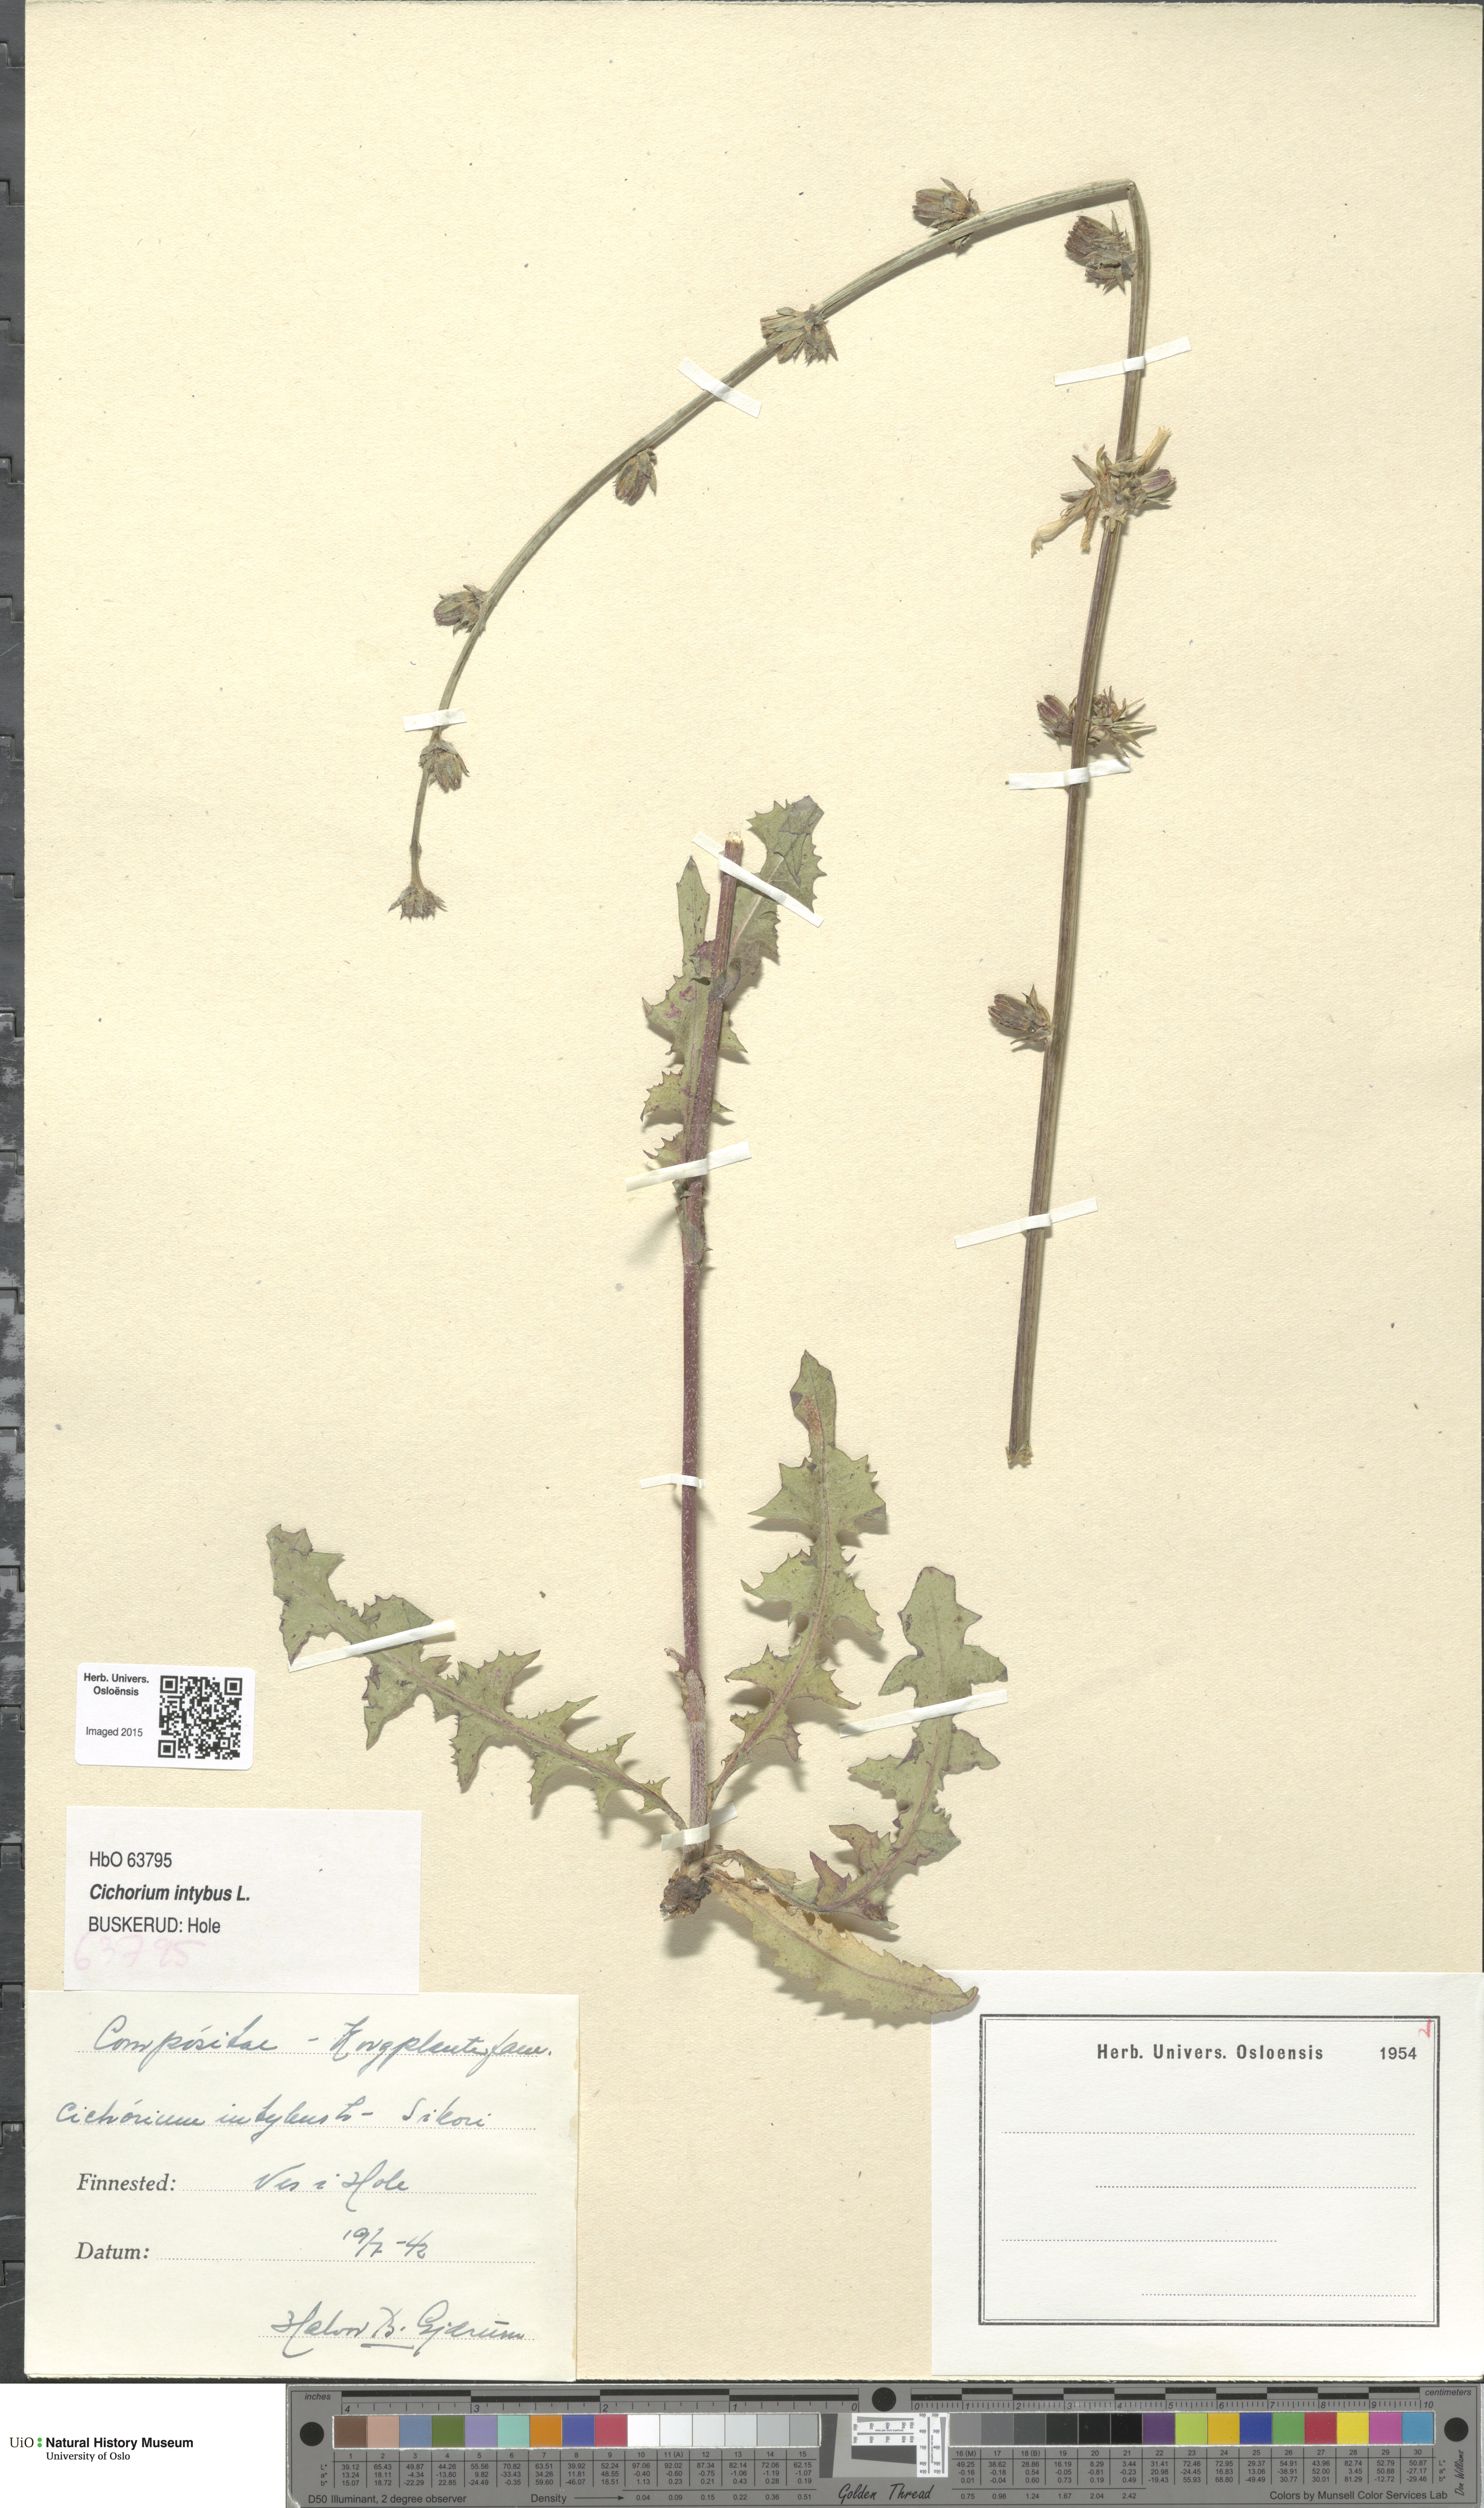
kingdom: Plantae
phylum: Tracheophyta
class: Magnoliopsida
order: Asterales
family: Asteraceae
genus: Cichorium
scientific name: Cichorium intybus
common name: Chicory
